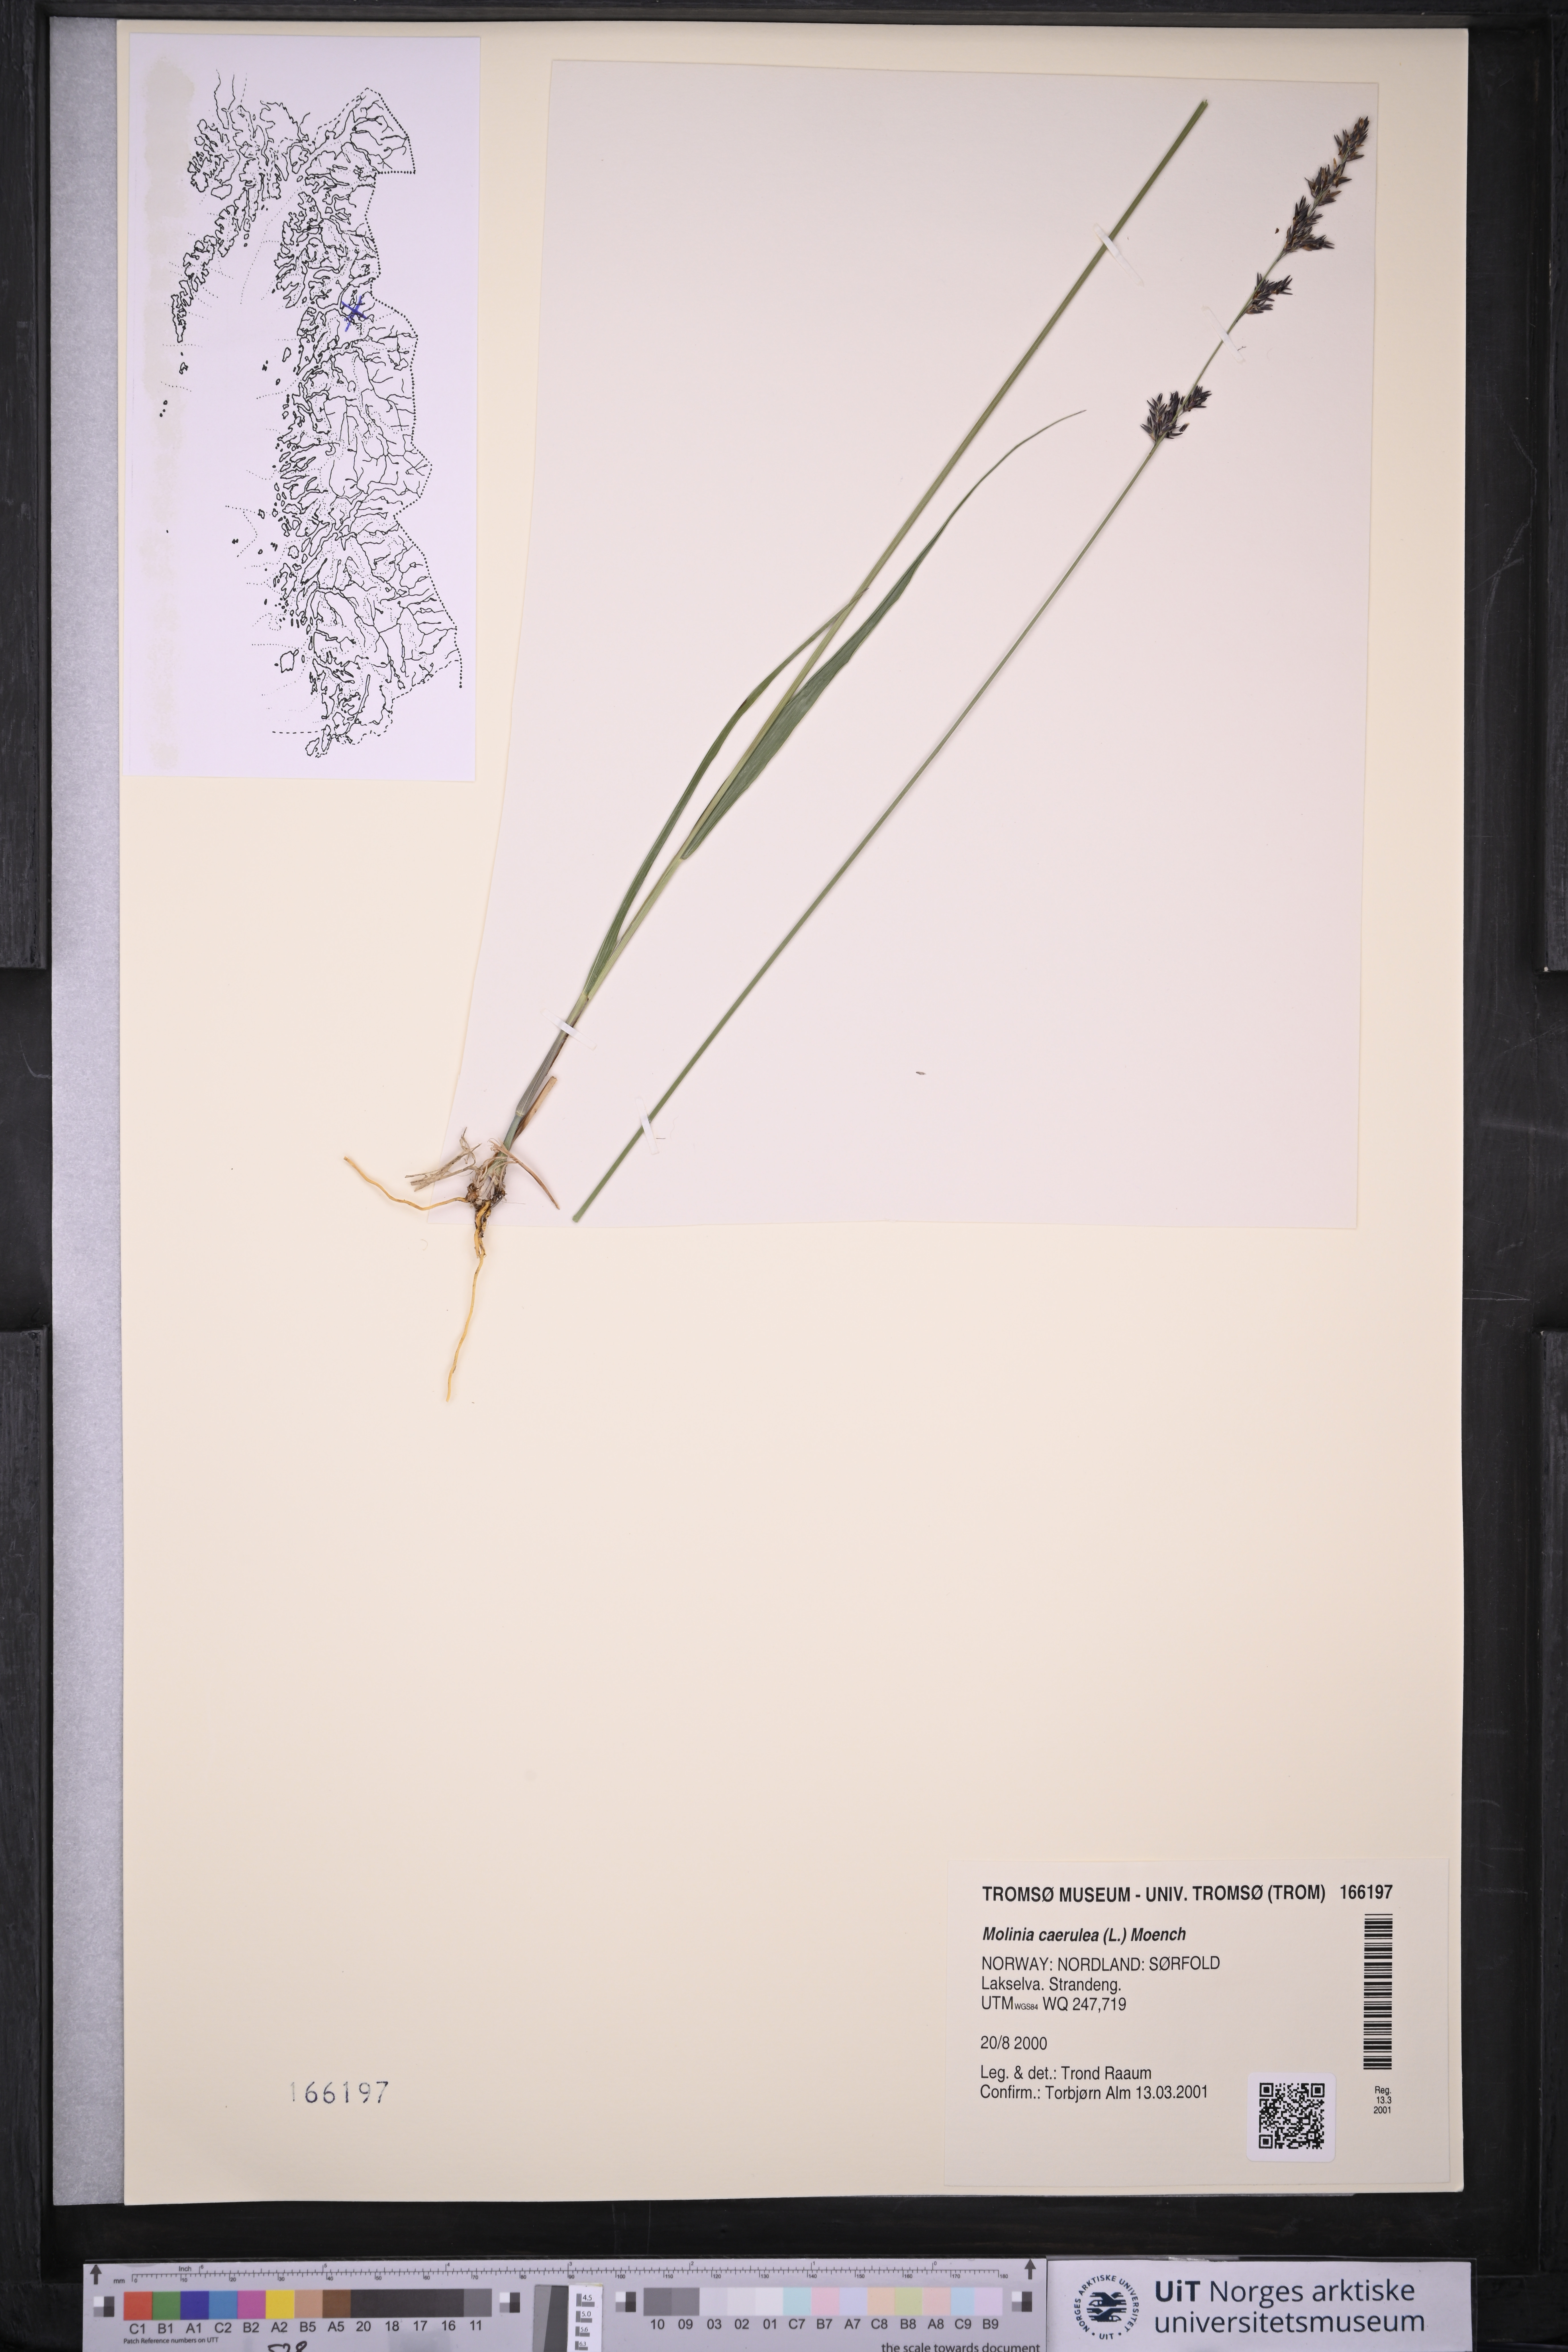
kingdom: Plantae
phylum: Tracheophyta
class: Liliopsida
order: Poales
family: Poaceae
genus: Molinia
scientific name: Molinia caerulea
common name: Purple moor-grass
